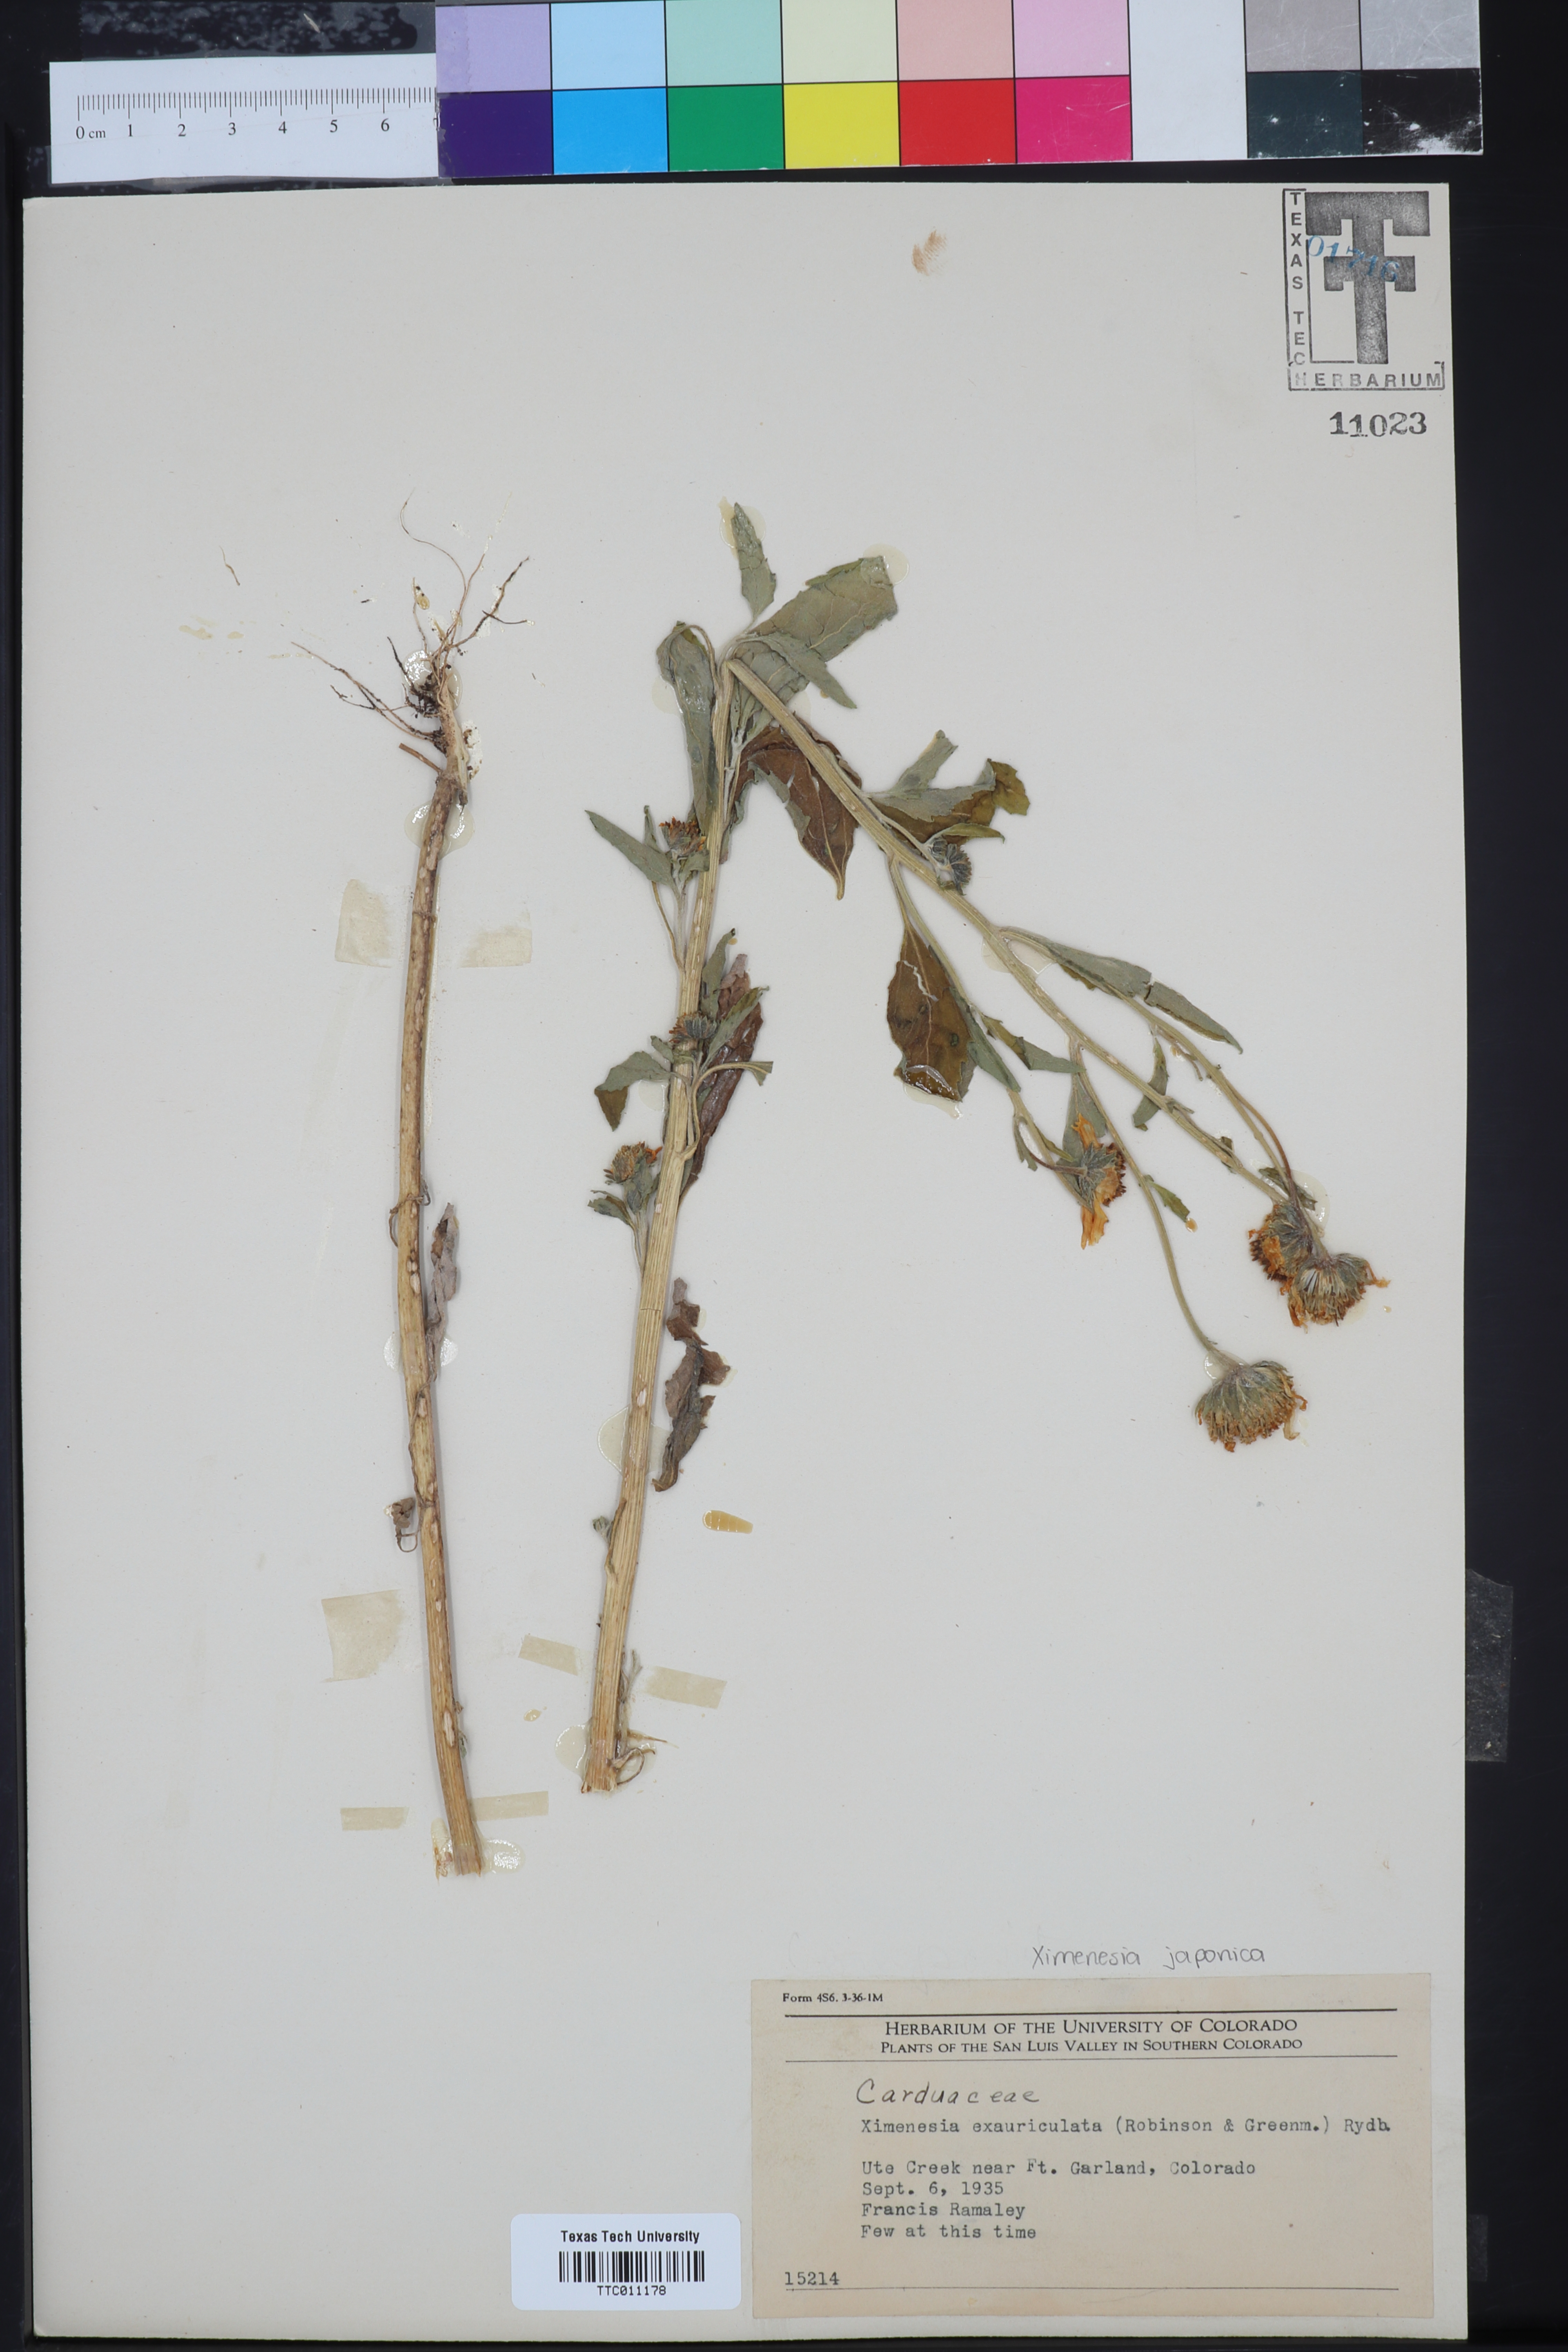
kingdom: Plantae
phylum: Tracheophyta
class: Magnoliopsida
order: Asterales
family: Asteraceae
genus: Verbesina
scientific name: Verbesina encelioides
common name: Golden crownbeard
